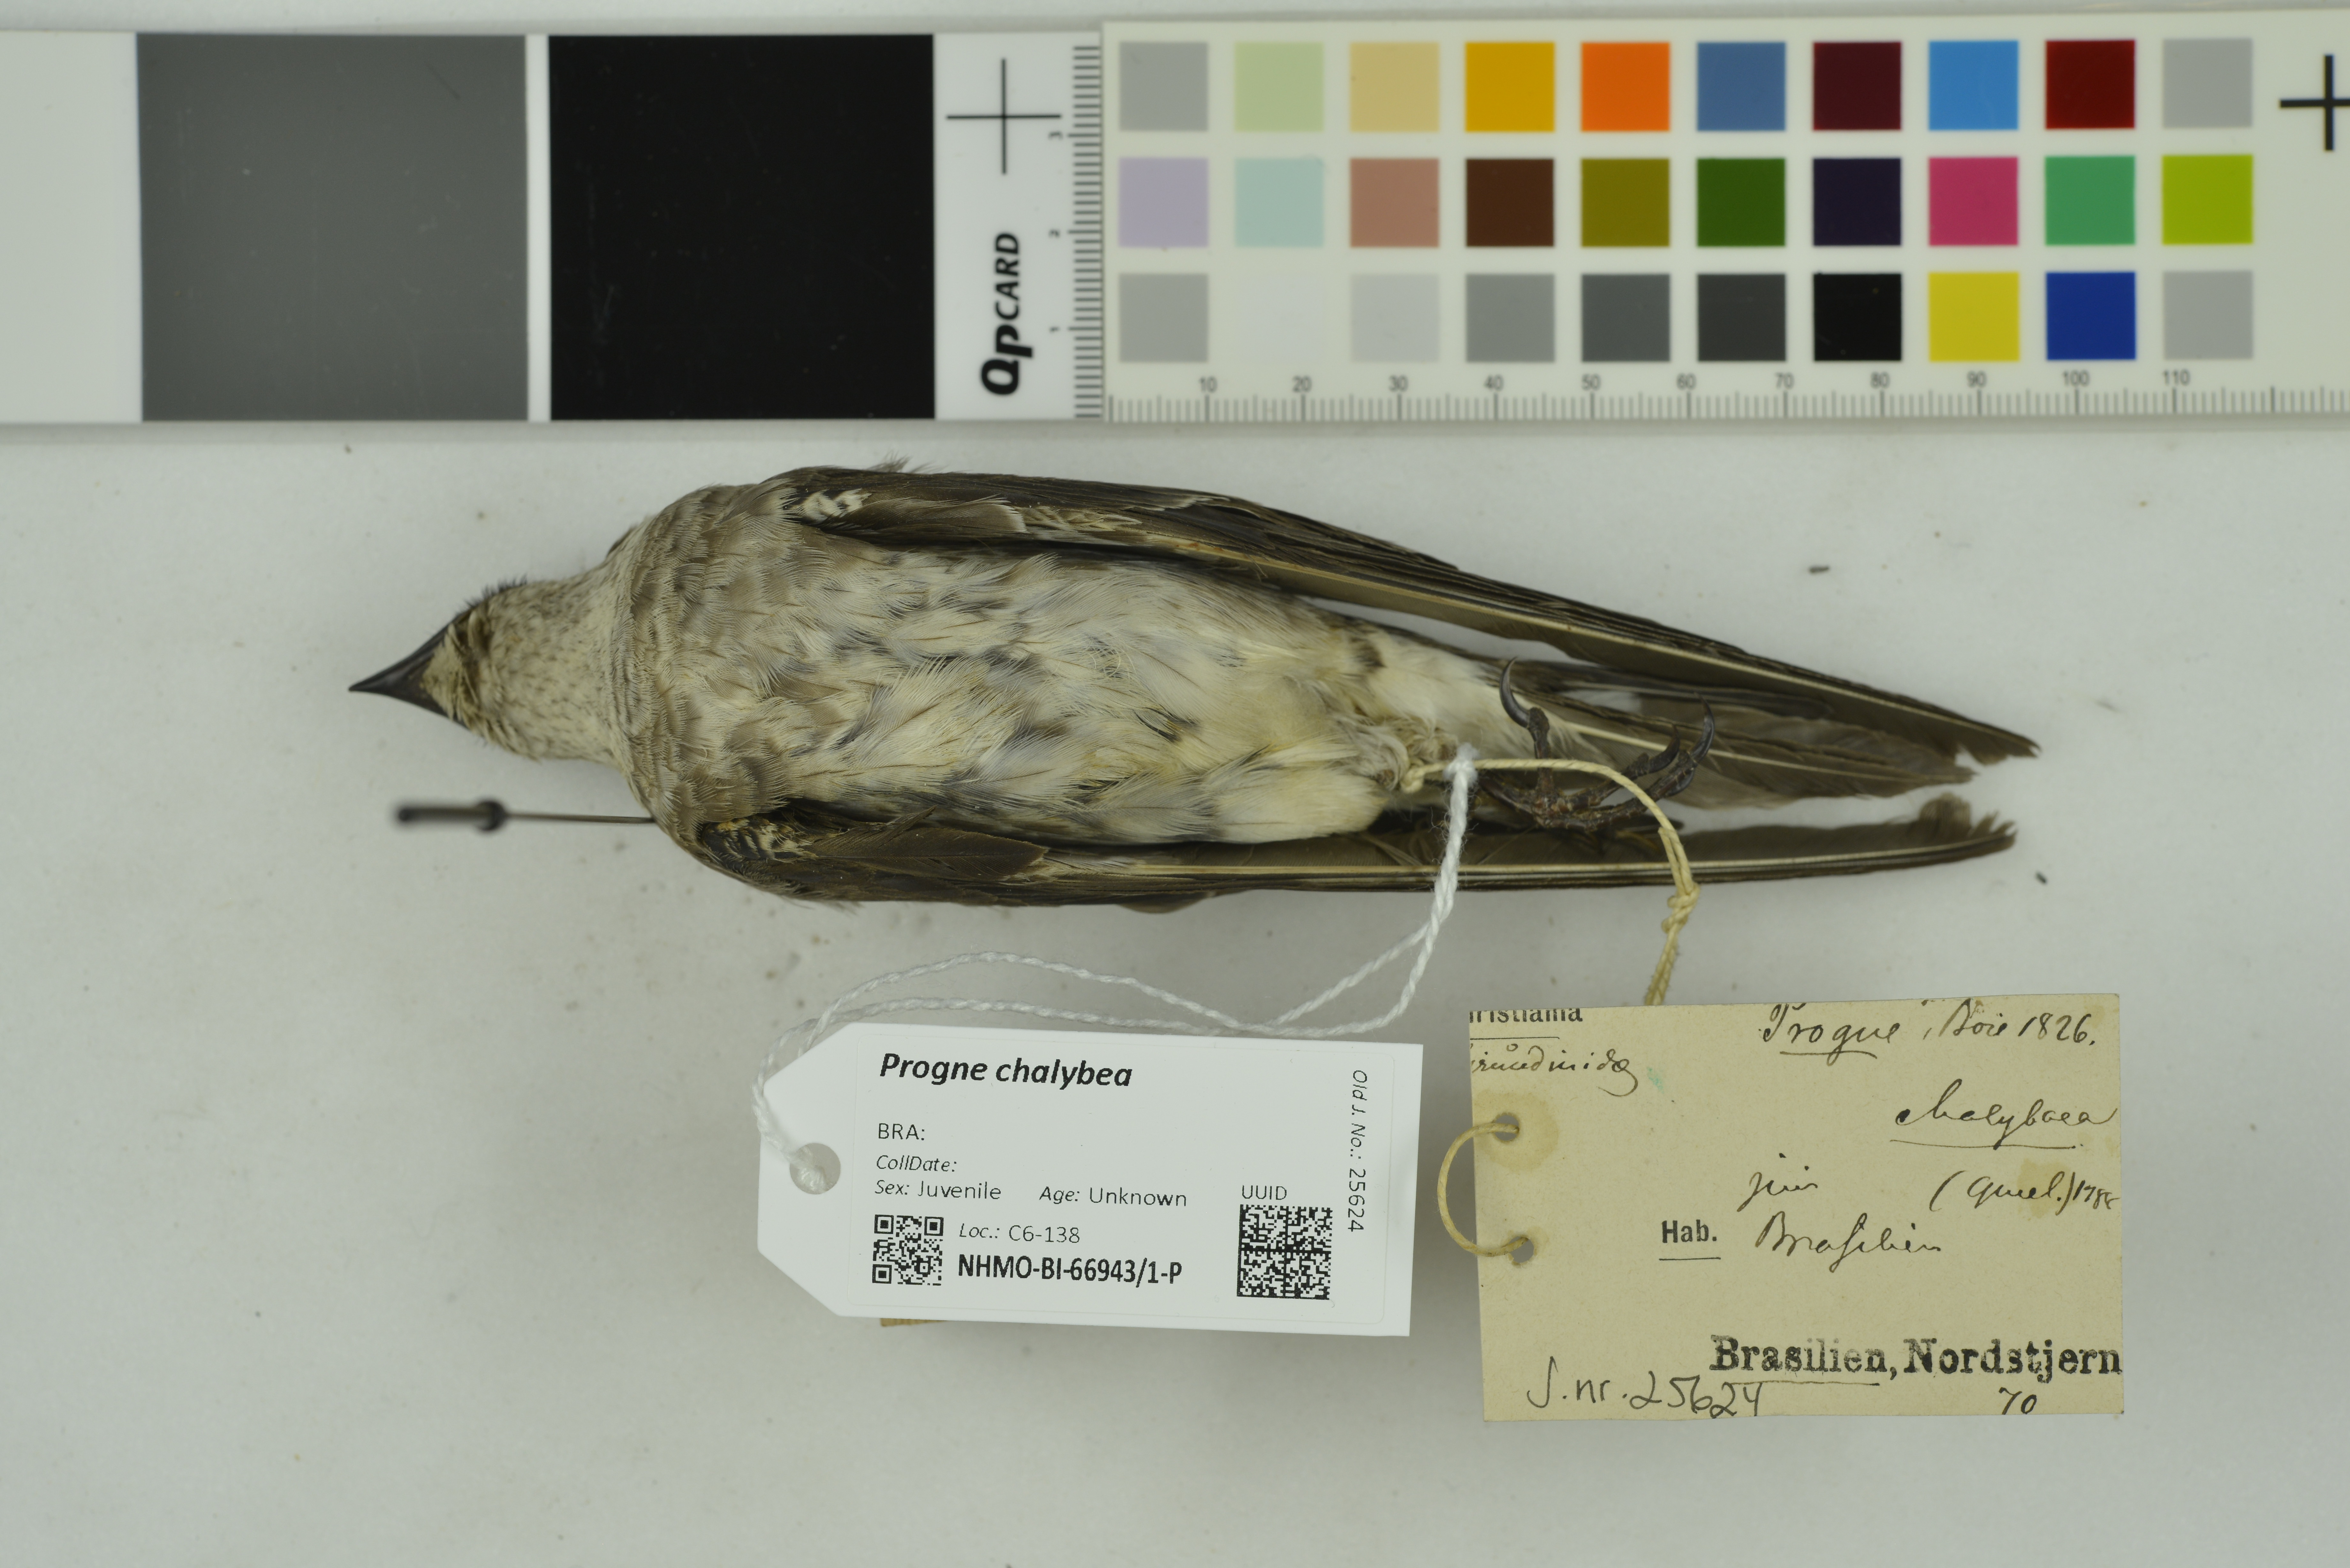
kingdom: Animalia
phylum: Chordata
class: Aves
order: Passeriformes
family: Hirundinidae
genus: Progne
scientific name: Progne chalybea
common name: Grey-breasted martin
